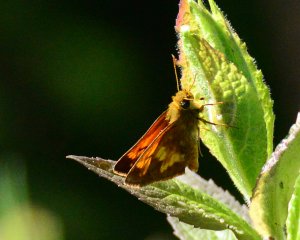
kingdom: Animalia
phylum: Arthropoda
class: Insecta
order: Lepidoptera
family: Hesperiidae
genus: Lon
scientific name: Lon hobomok
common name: Hobomok Skipper
